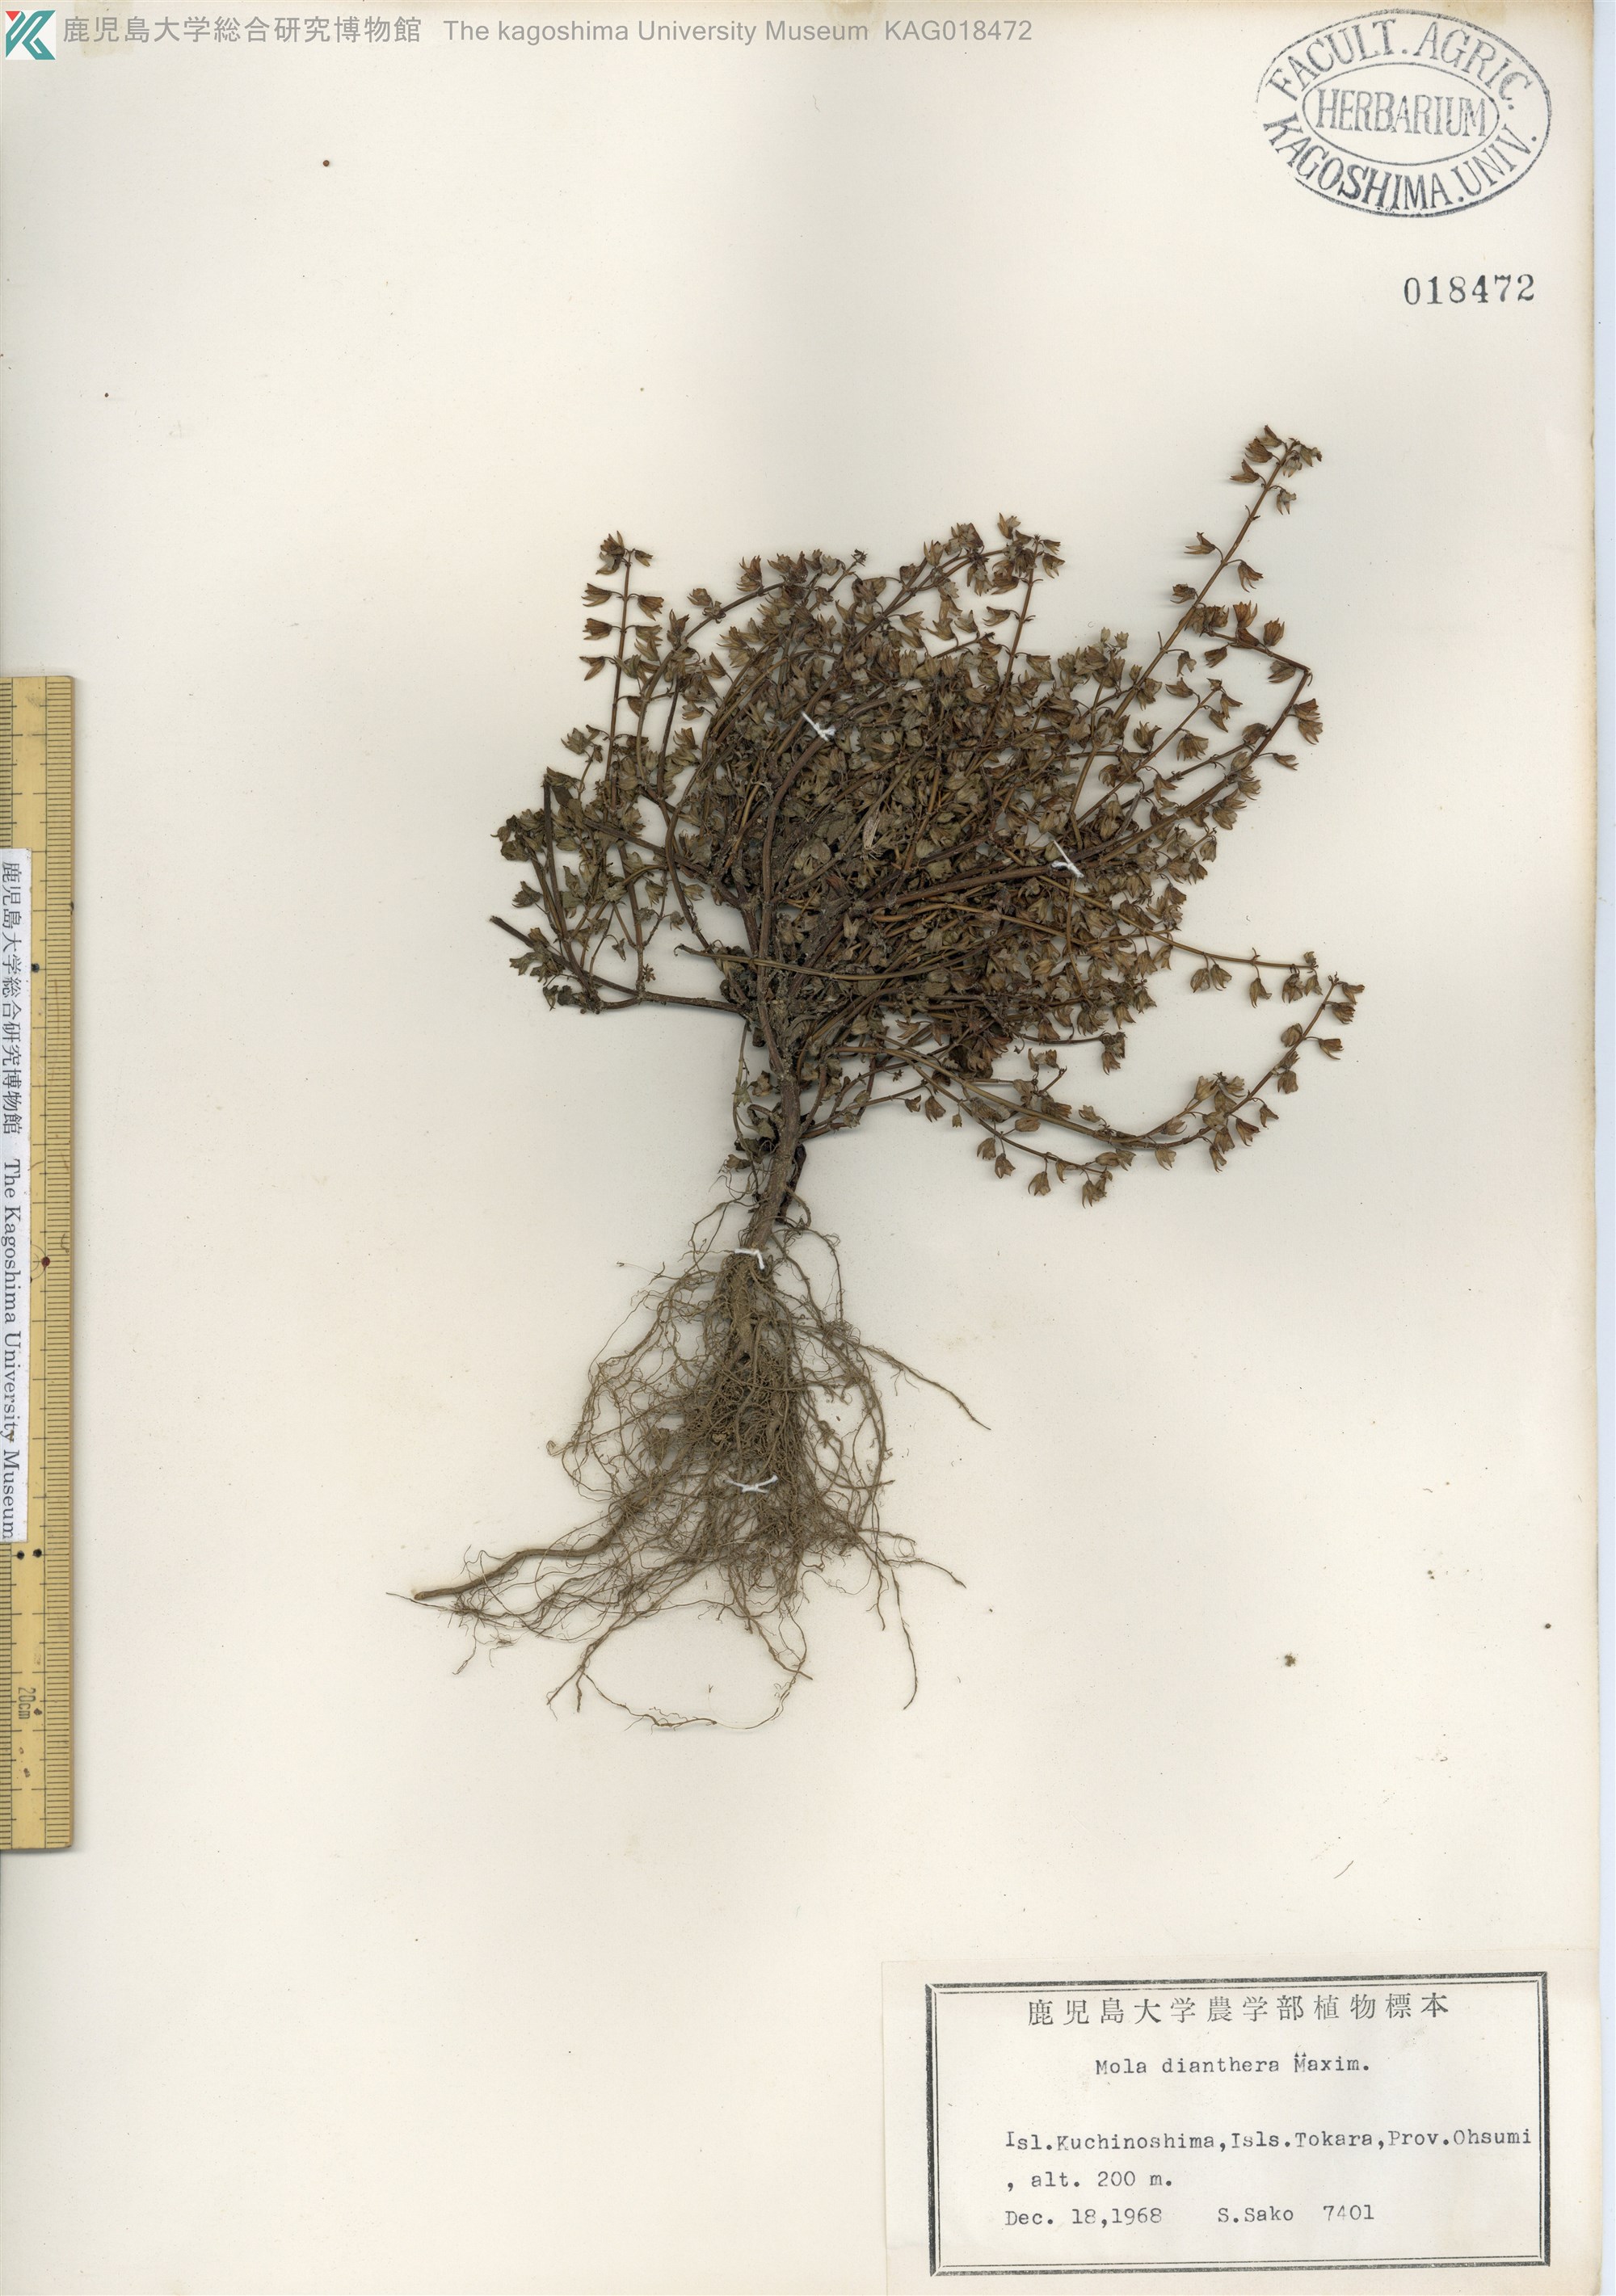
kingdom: Plantae
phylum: Tracheophyta
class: Magnoliopsida
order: Lamiales
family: Lamiaceae
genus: Mosla
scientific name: Mosla dianthera
